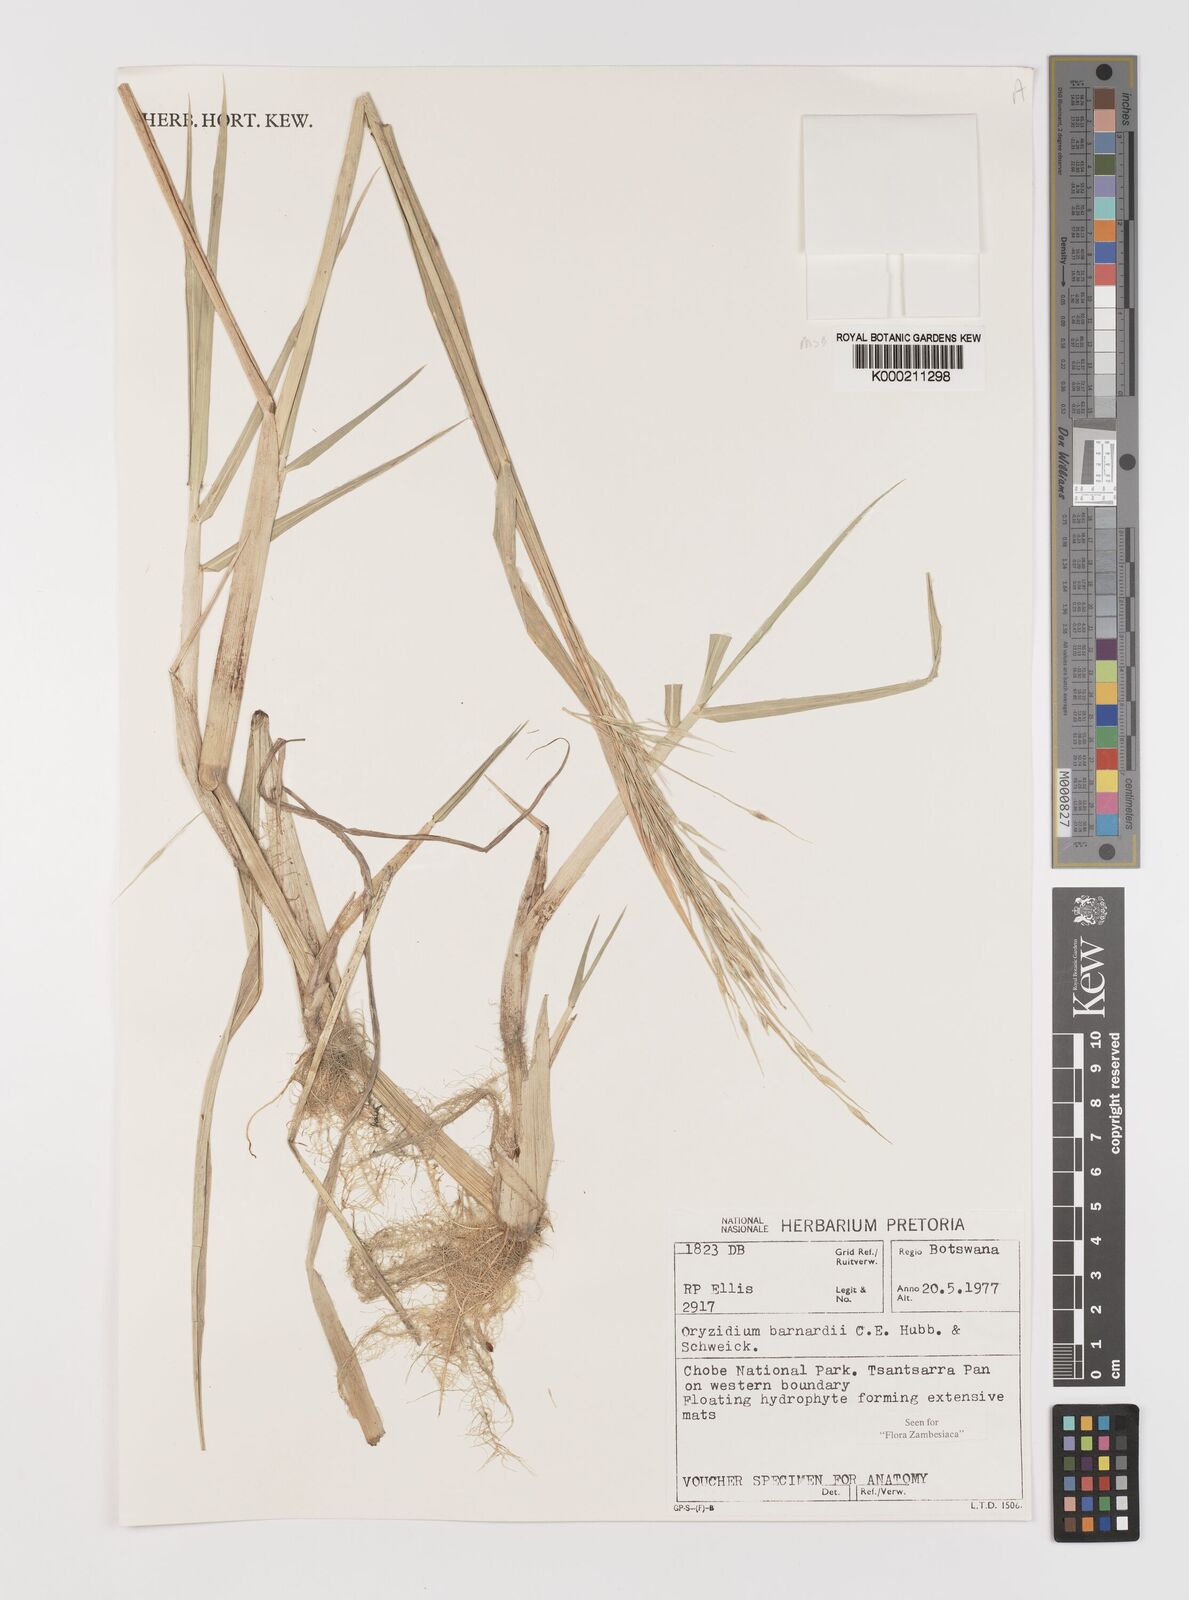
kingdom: Plantae
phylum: Tracheophyta
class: Liliopsida
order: Poales
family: Poaceae
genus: Oryzidium
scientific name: Oryzidium barnardii
